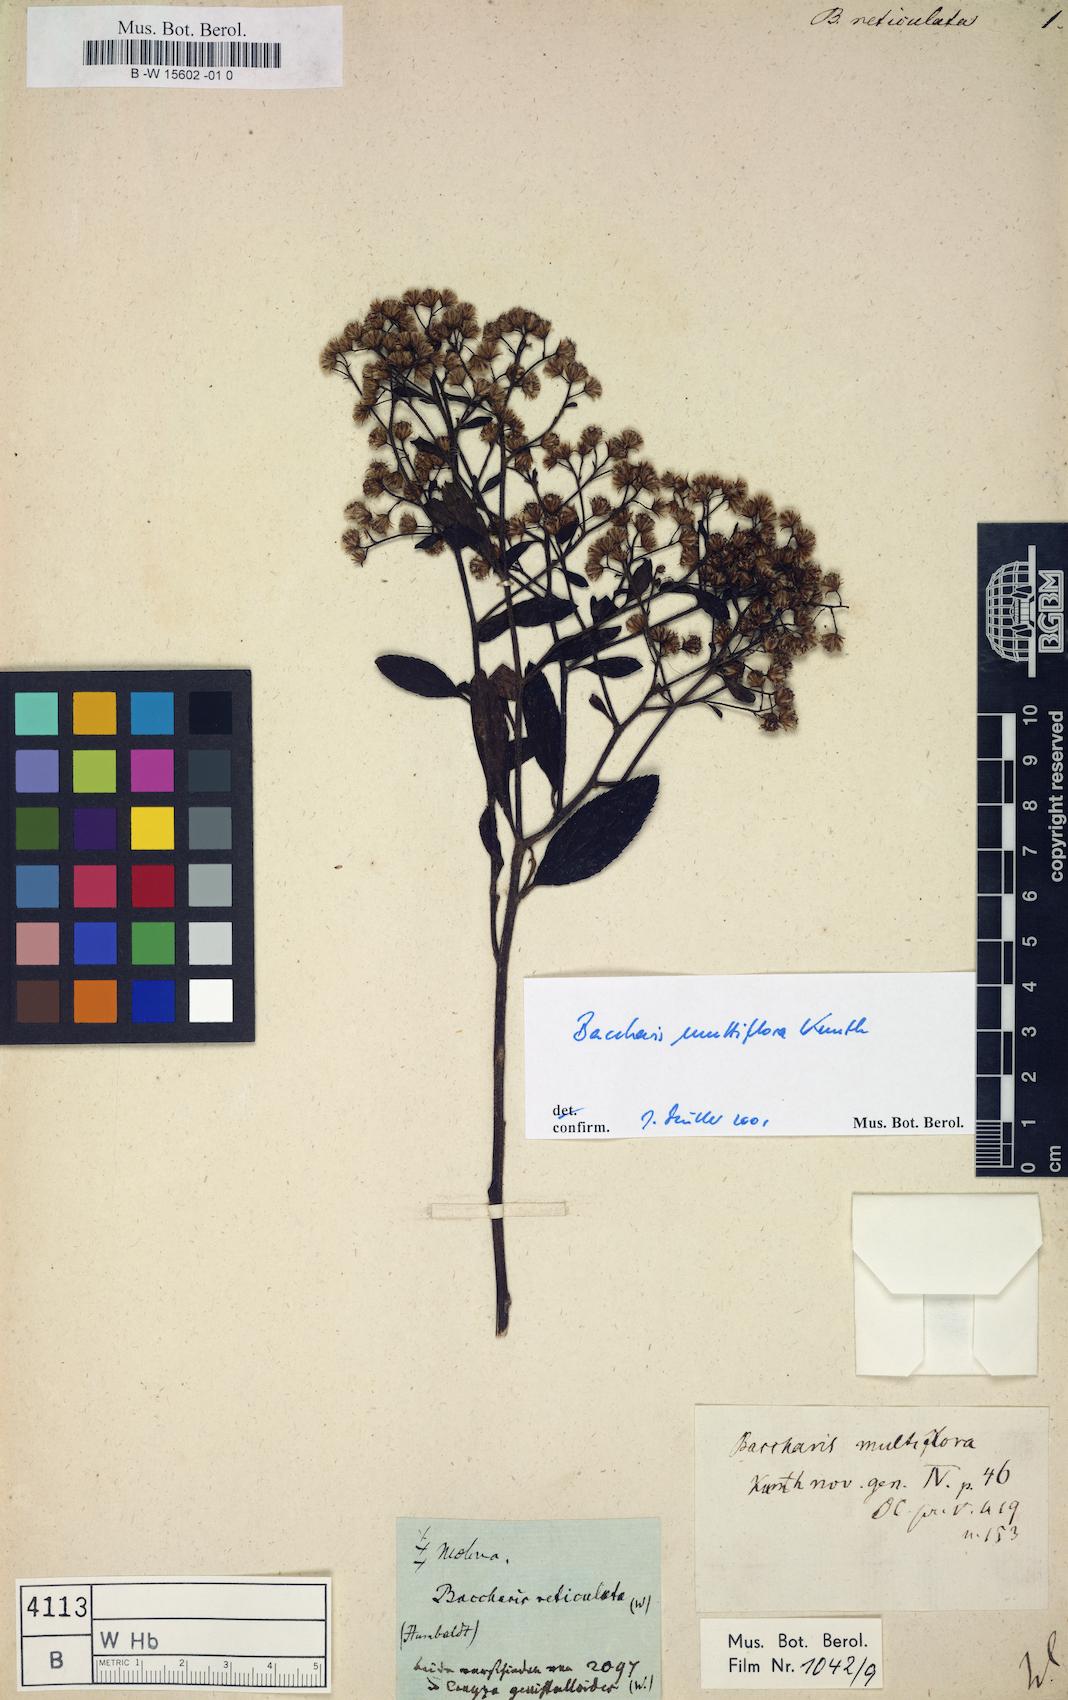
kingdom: Plantae
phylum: Tracheophyta
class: Magnoliopsida
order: Asterales
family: Asteraceae
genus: Baccharis
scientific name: Baccharis genistelloides
